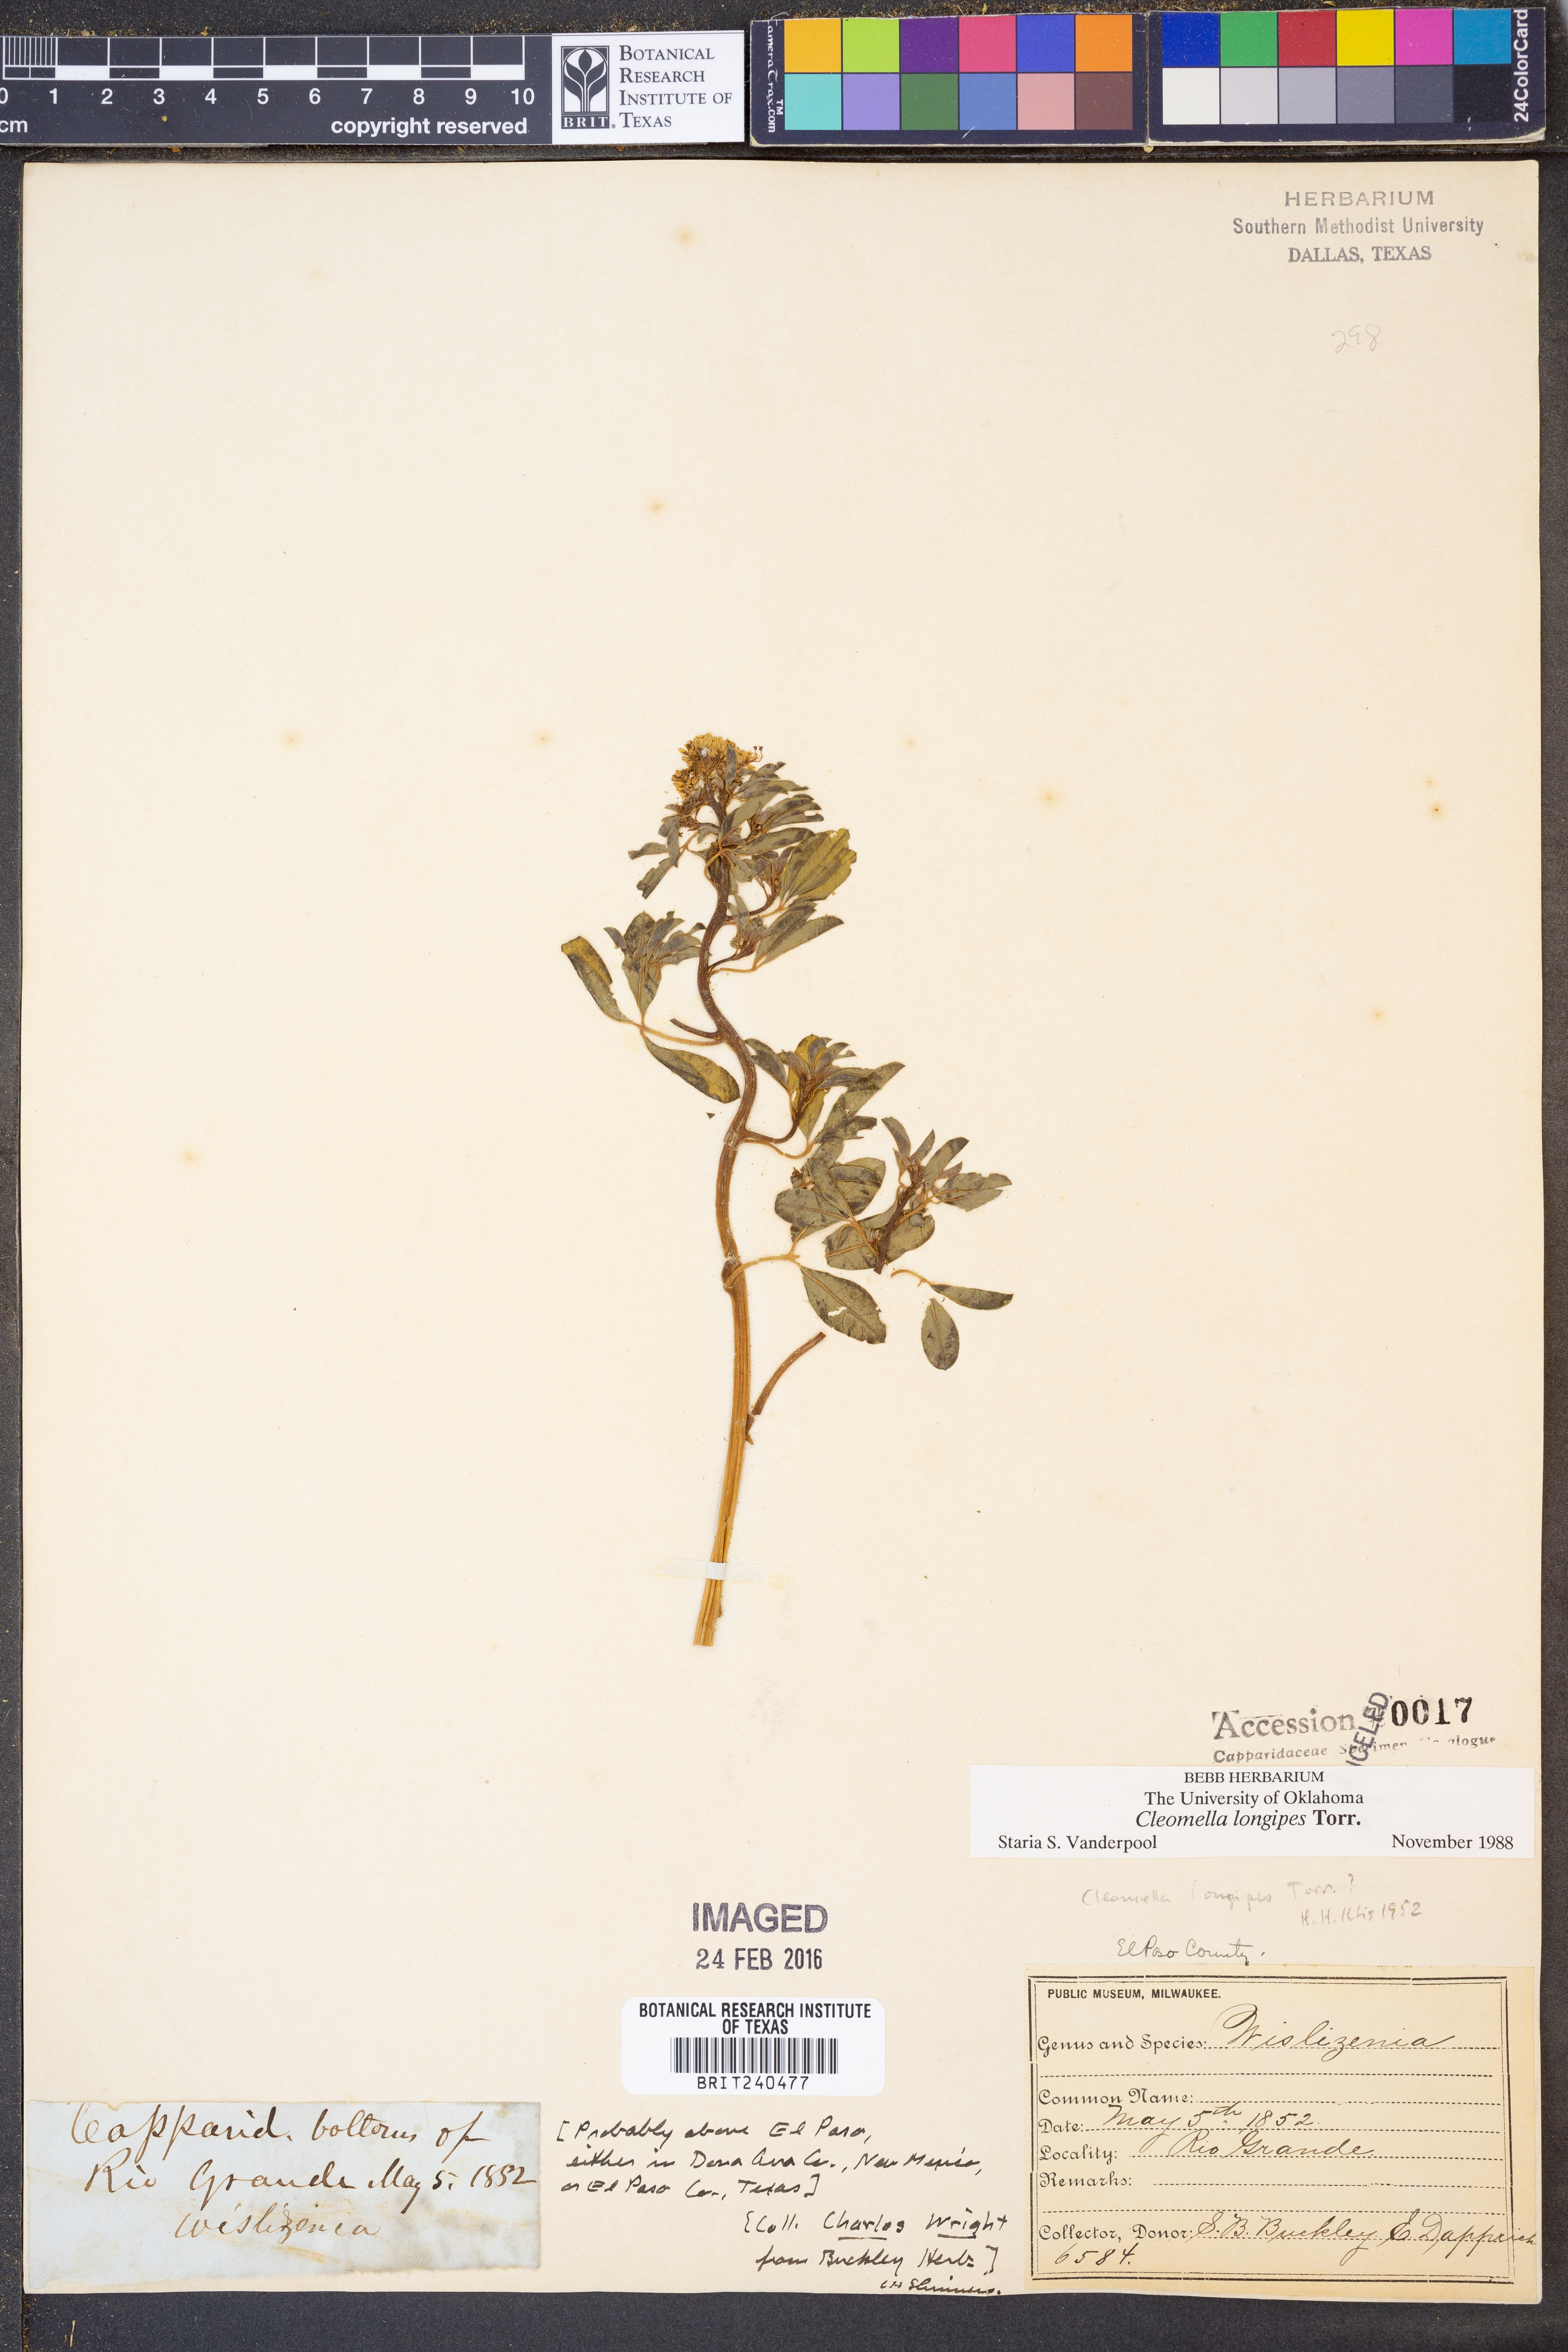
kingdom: Plantae
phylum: Tracheophyta
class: Magnoliopsida
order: Brassicales
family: Cleomaceae
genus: Cleomella
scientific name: Cleomella longipes
